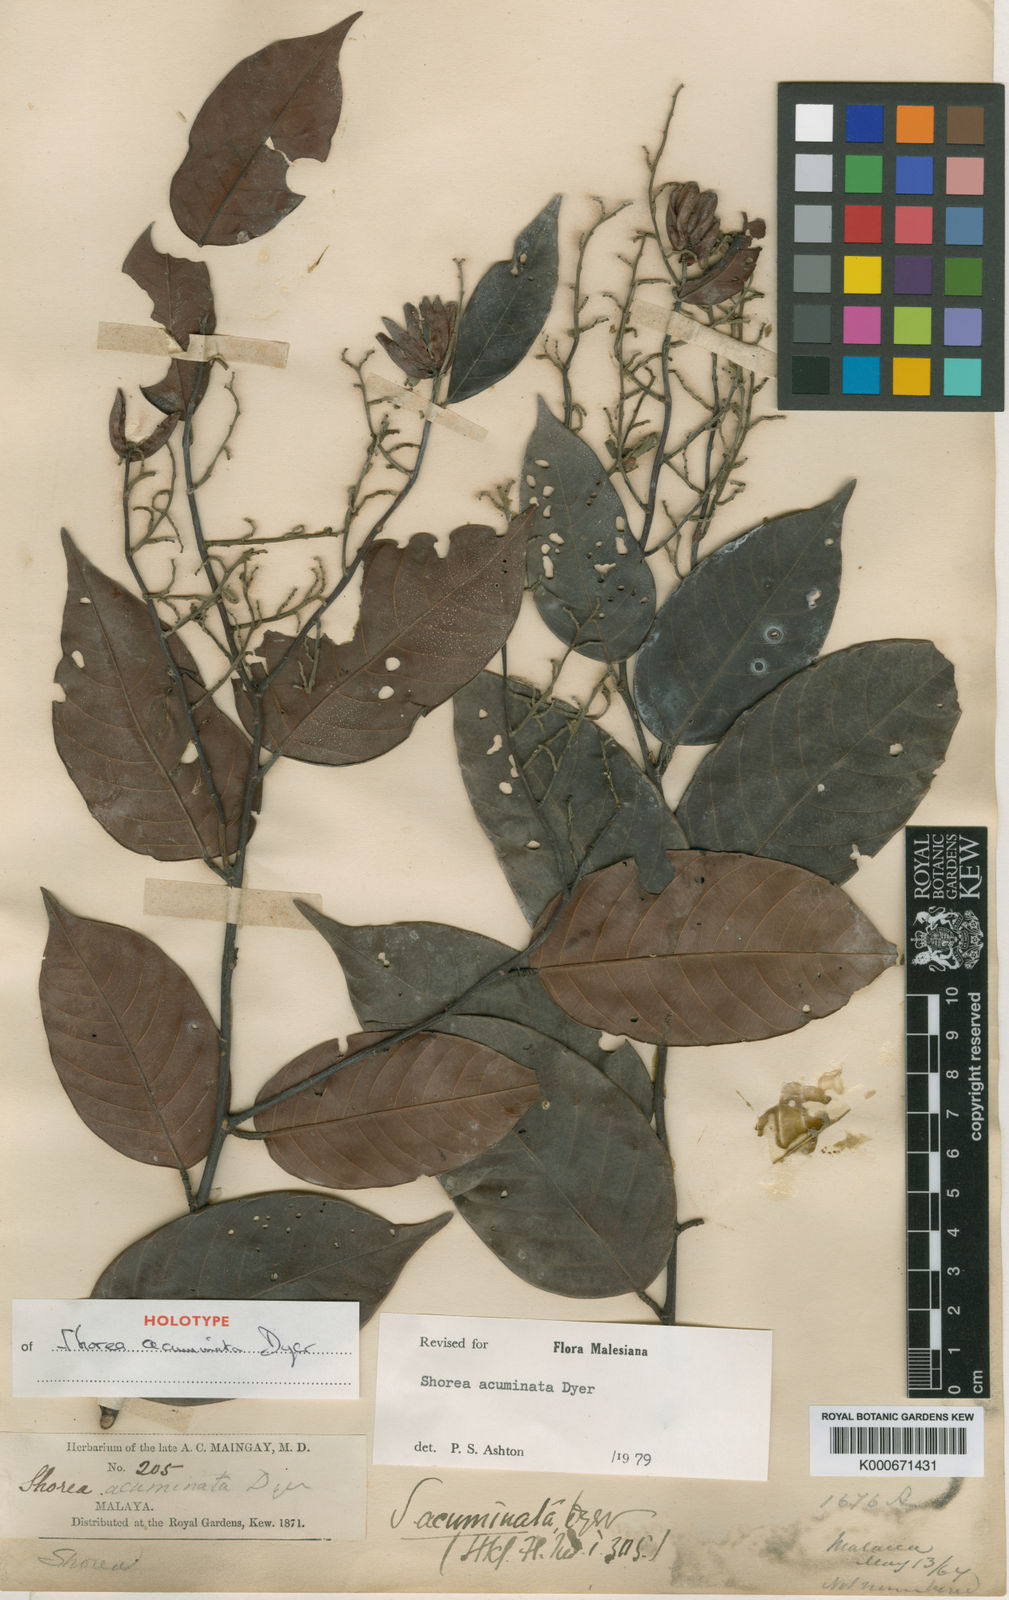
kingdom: Plantae
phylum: Tracheophyta
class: Magnoliopsida
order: Malvales
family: Dipterocarpaceae
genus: Shorea
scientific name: Shorea acuminata
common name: Dark red meranti
